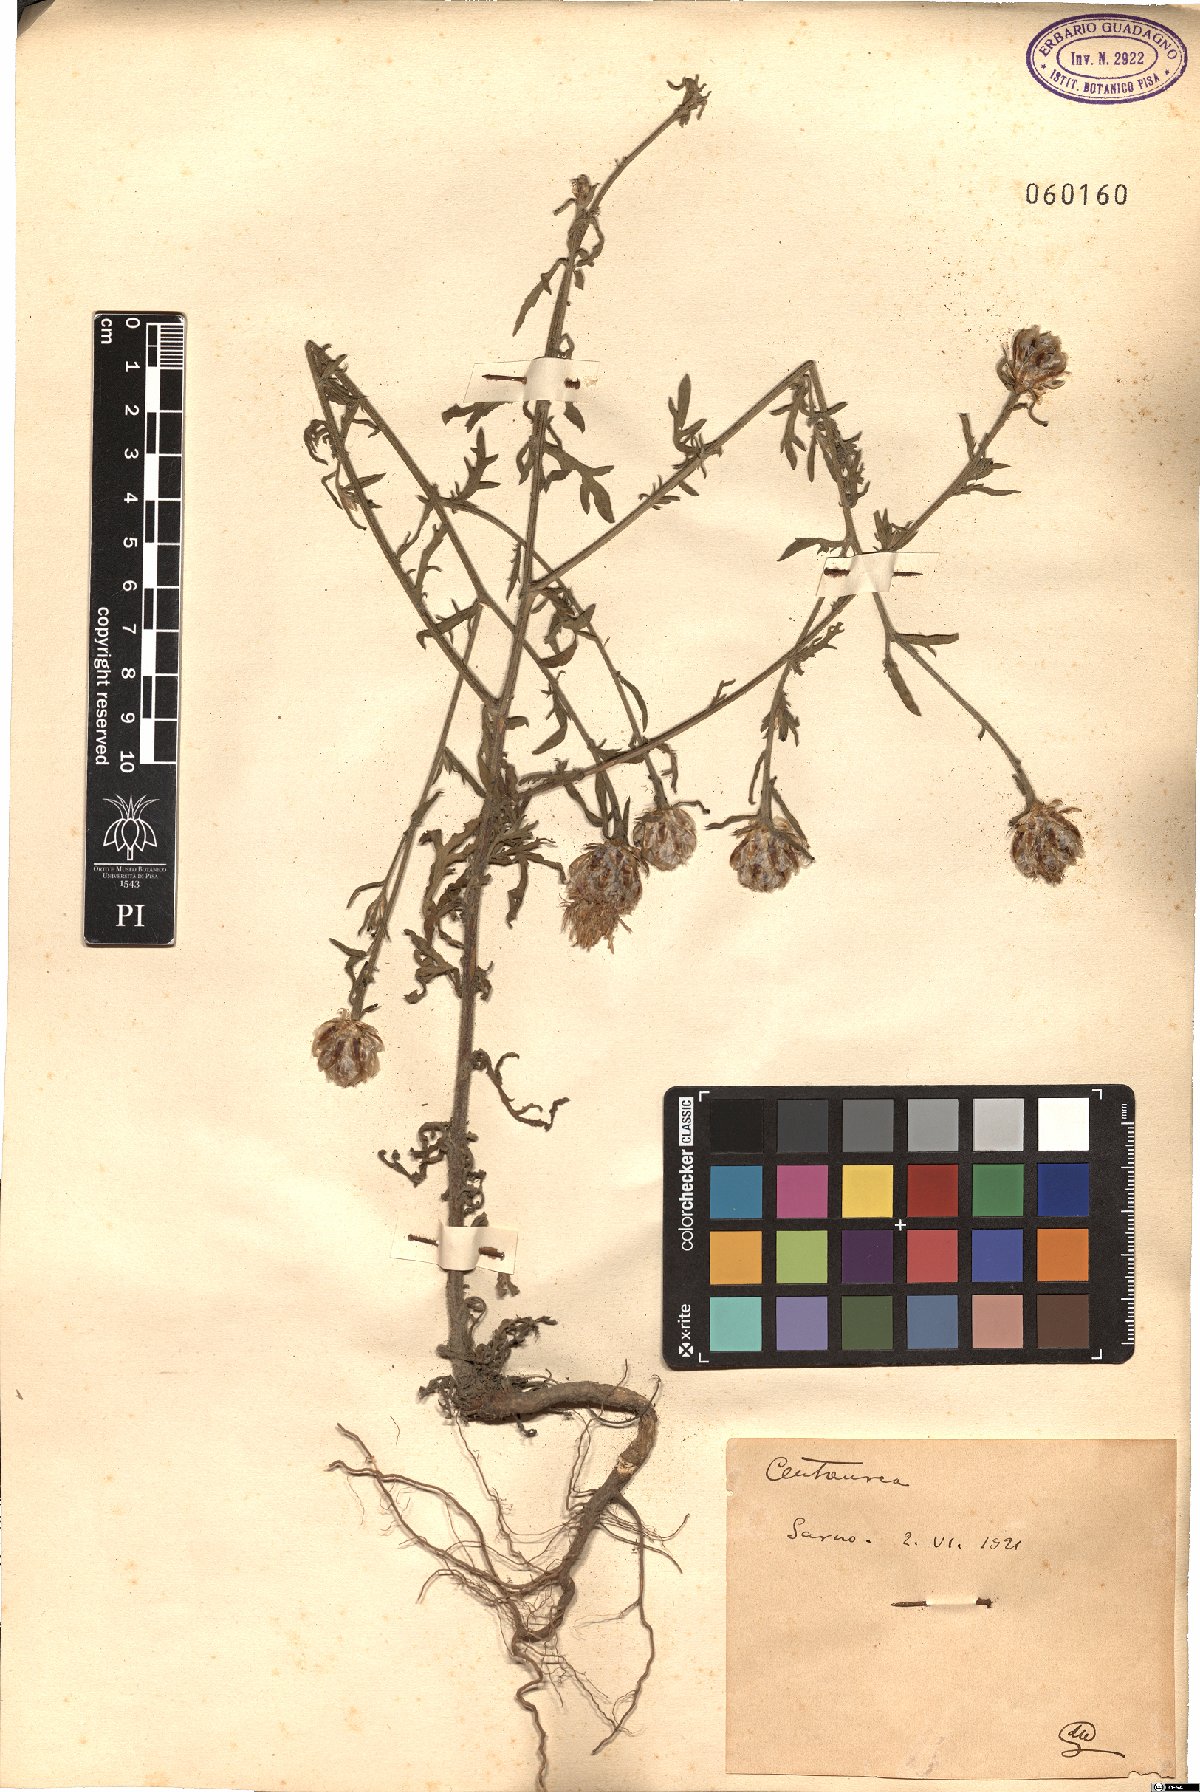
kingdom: Plantae
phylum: Tracheophyta
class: Magnoliopsida
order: Asterales
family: Asteraceae
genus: Centaurea
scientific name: Centaurea
